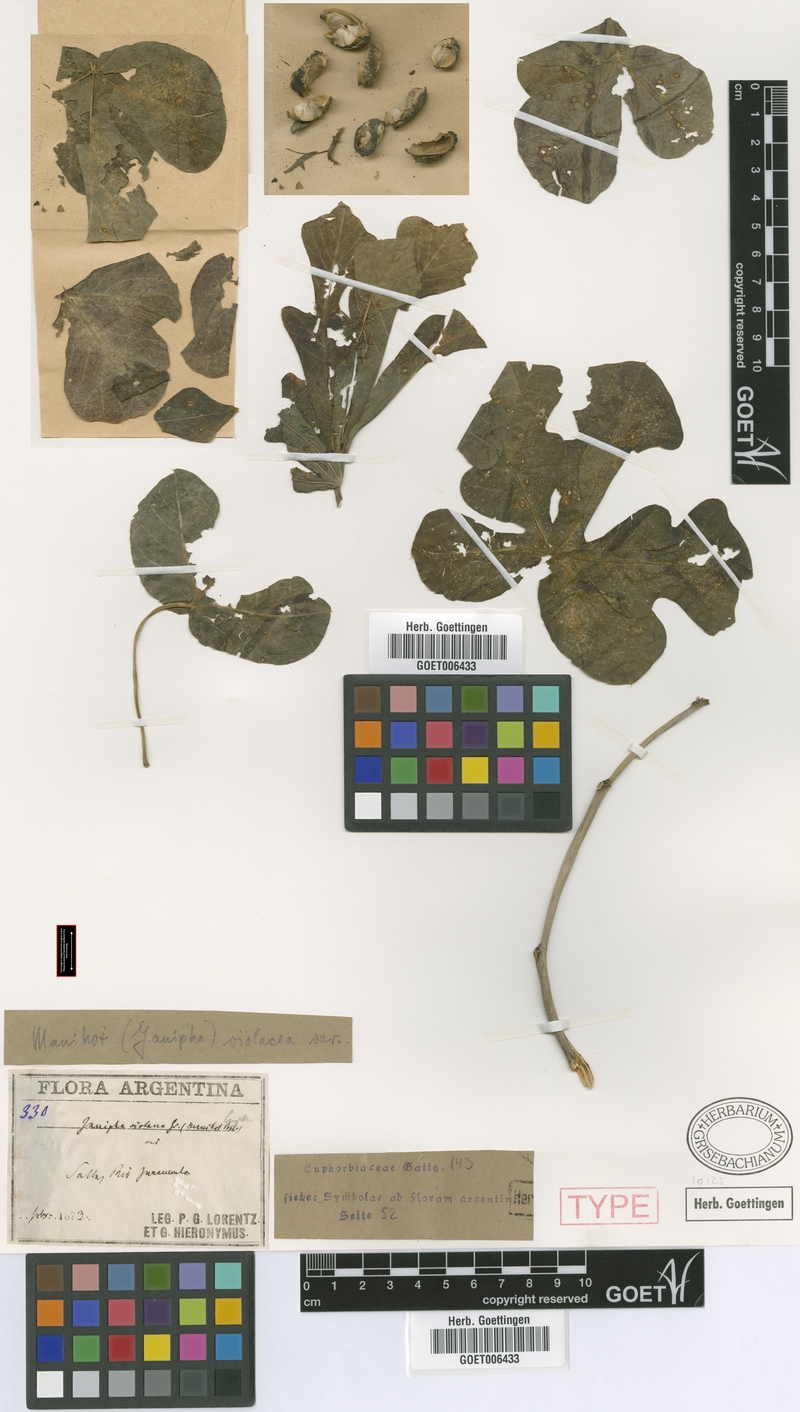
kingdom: Plantae
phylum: Tracheophyta
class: Magnoliopsida
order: Malpighiales
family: Euphorbiaceae
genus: Manihot
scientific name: Manihot guaranitica
